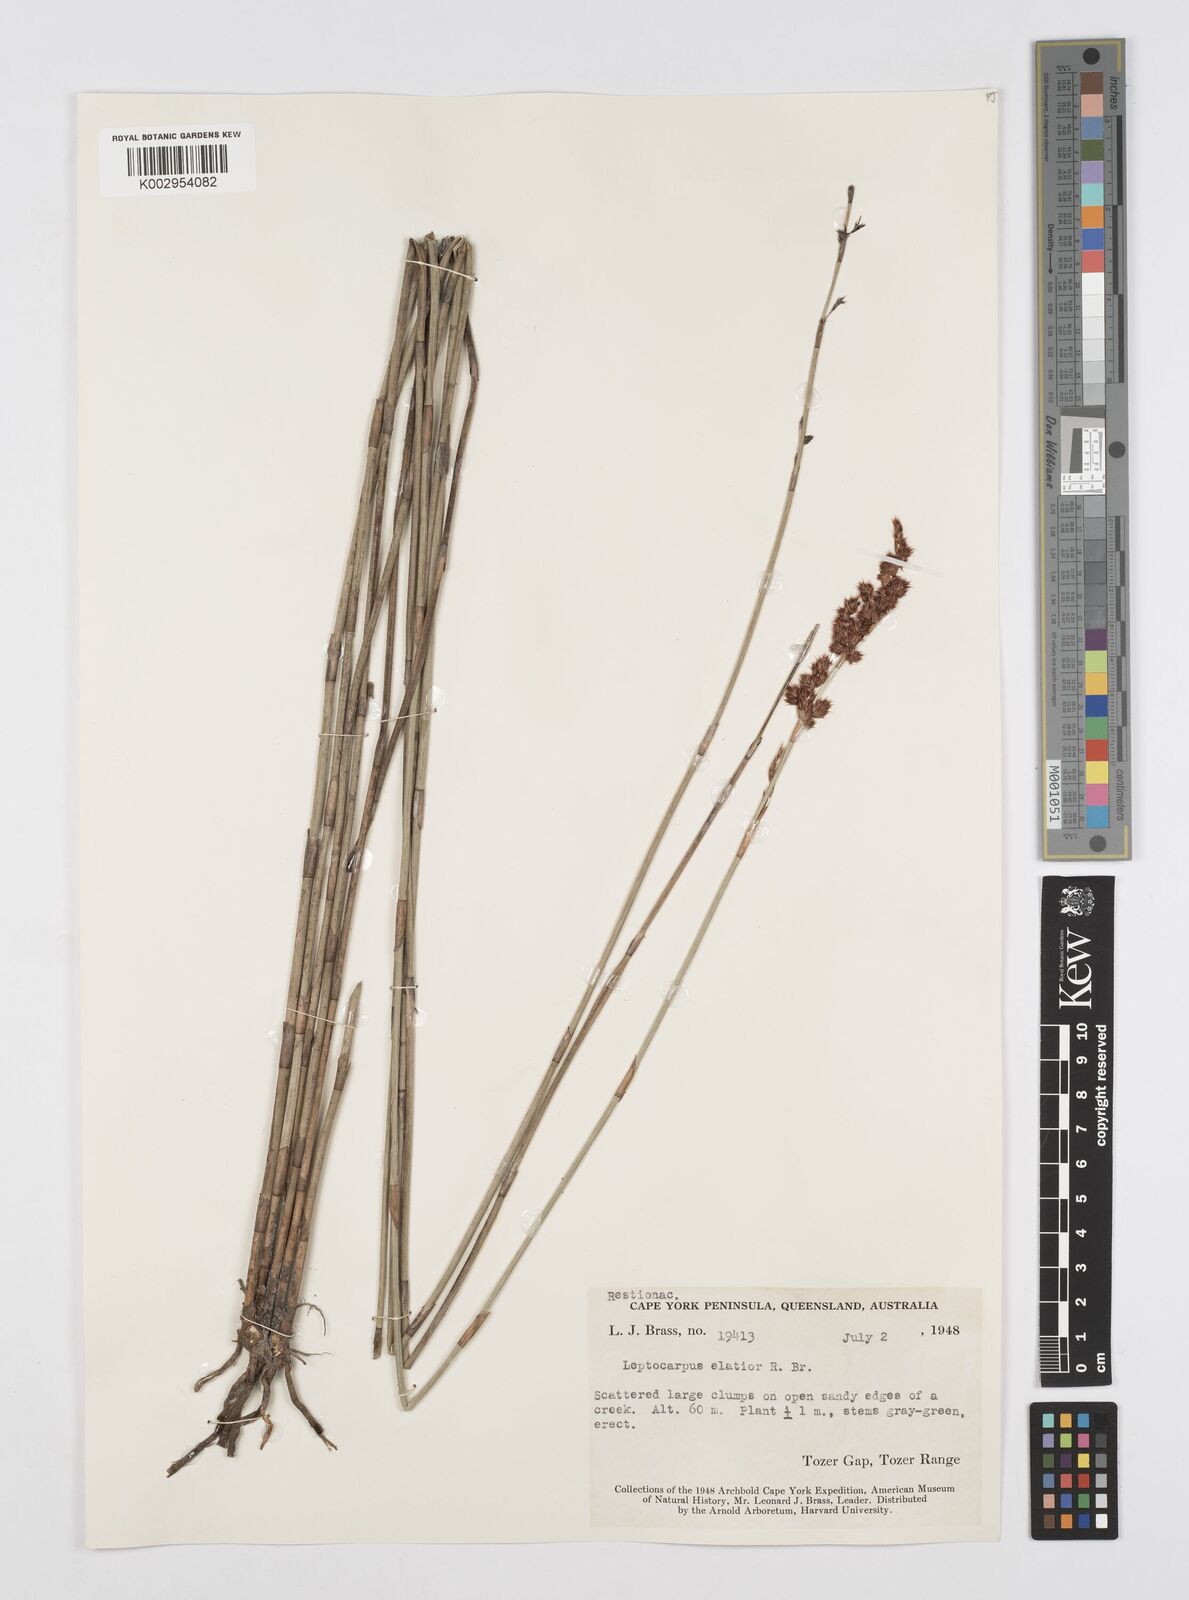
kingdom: Plantae
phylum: Tracheophyta
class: Liliopsida
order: Poales
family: Restionaceae
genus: Dapsilanthus
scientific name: Dapsilanthus elatior
